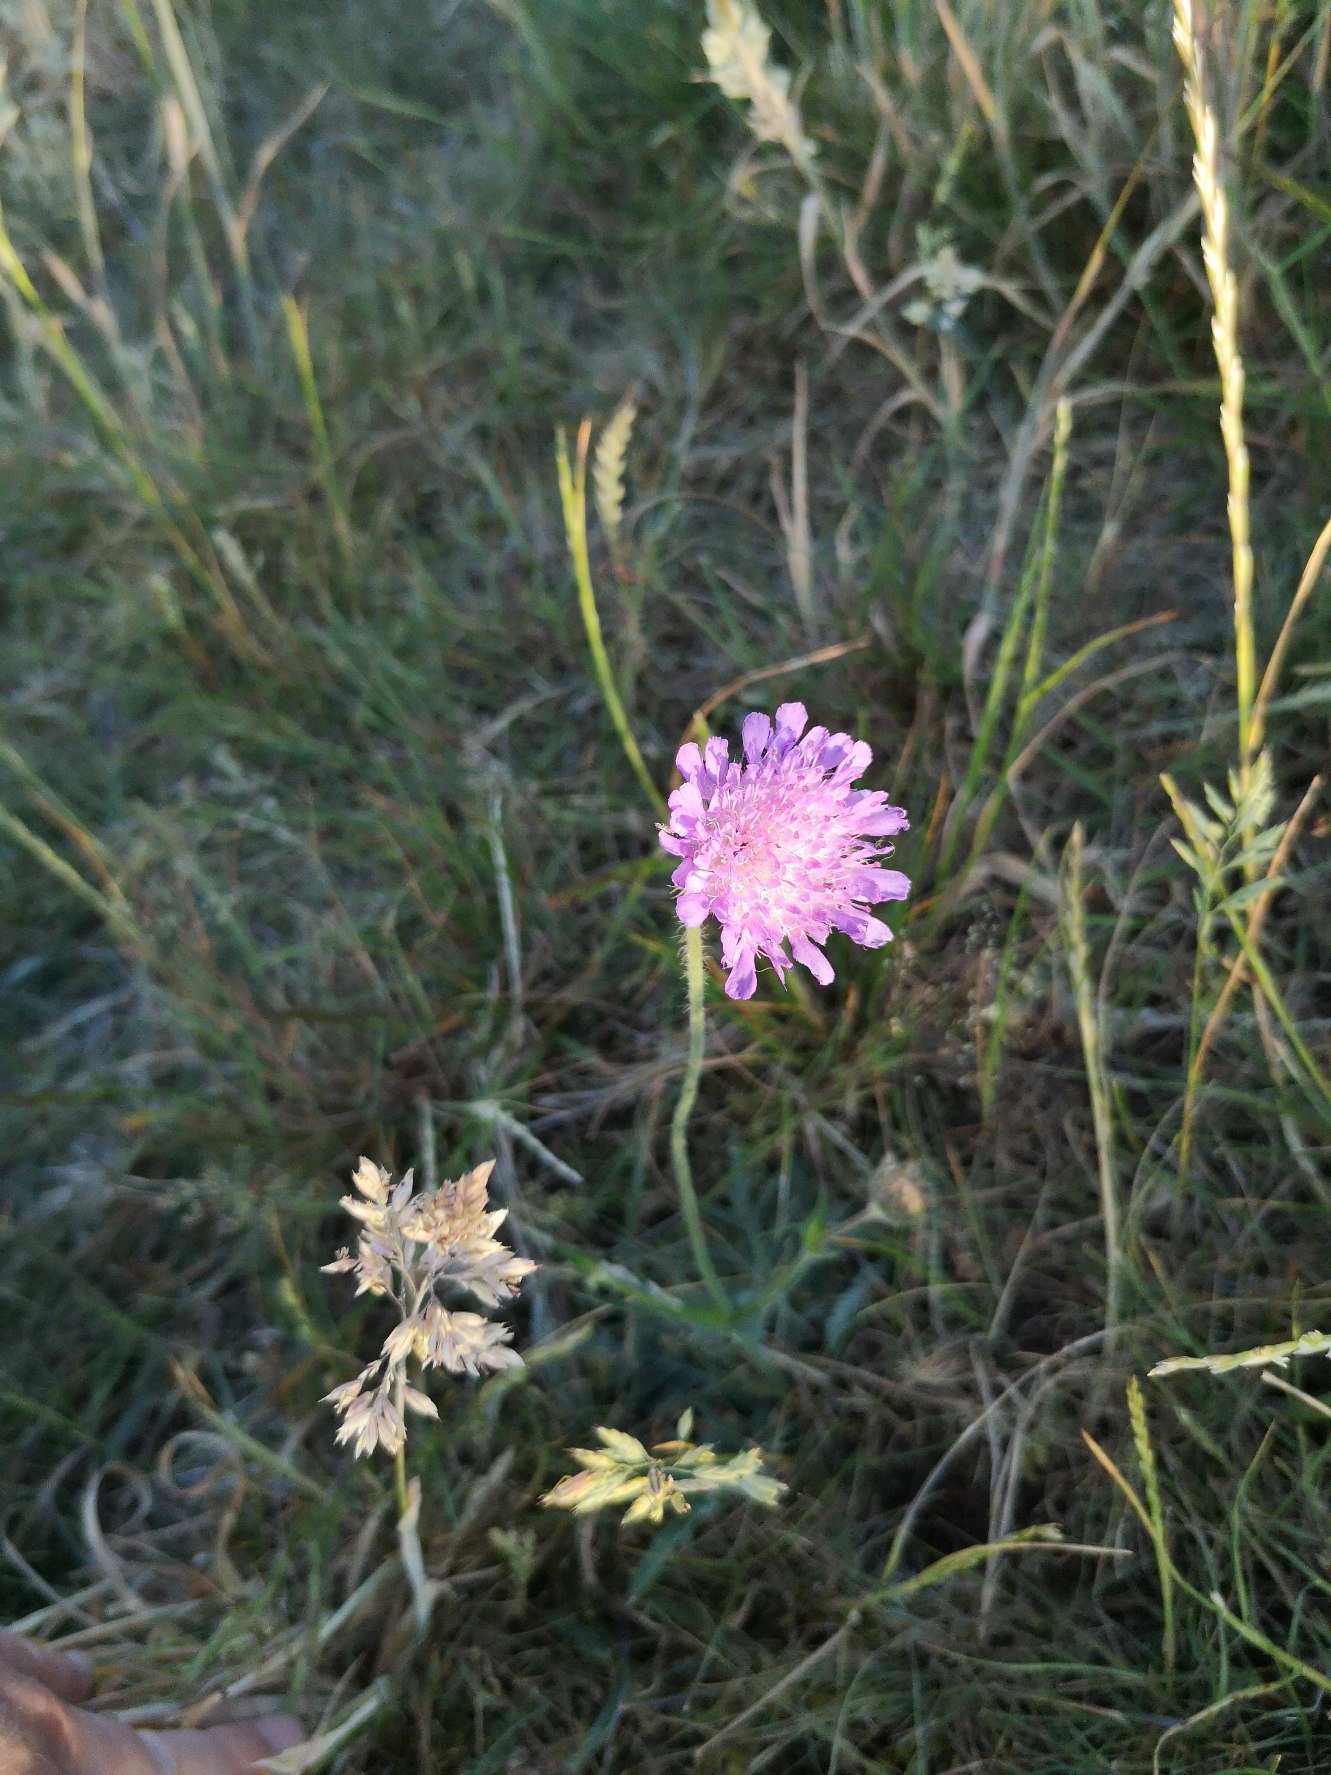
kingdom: Plantae
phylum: Tracheophyta
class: Magnoliopsida
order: Dipsacales
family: Caprifoliaceae
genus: Knautia
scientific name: Knautia arvensis
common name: Blåhat
